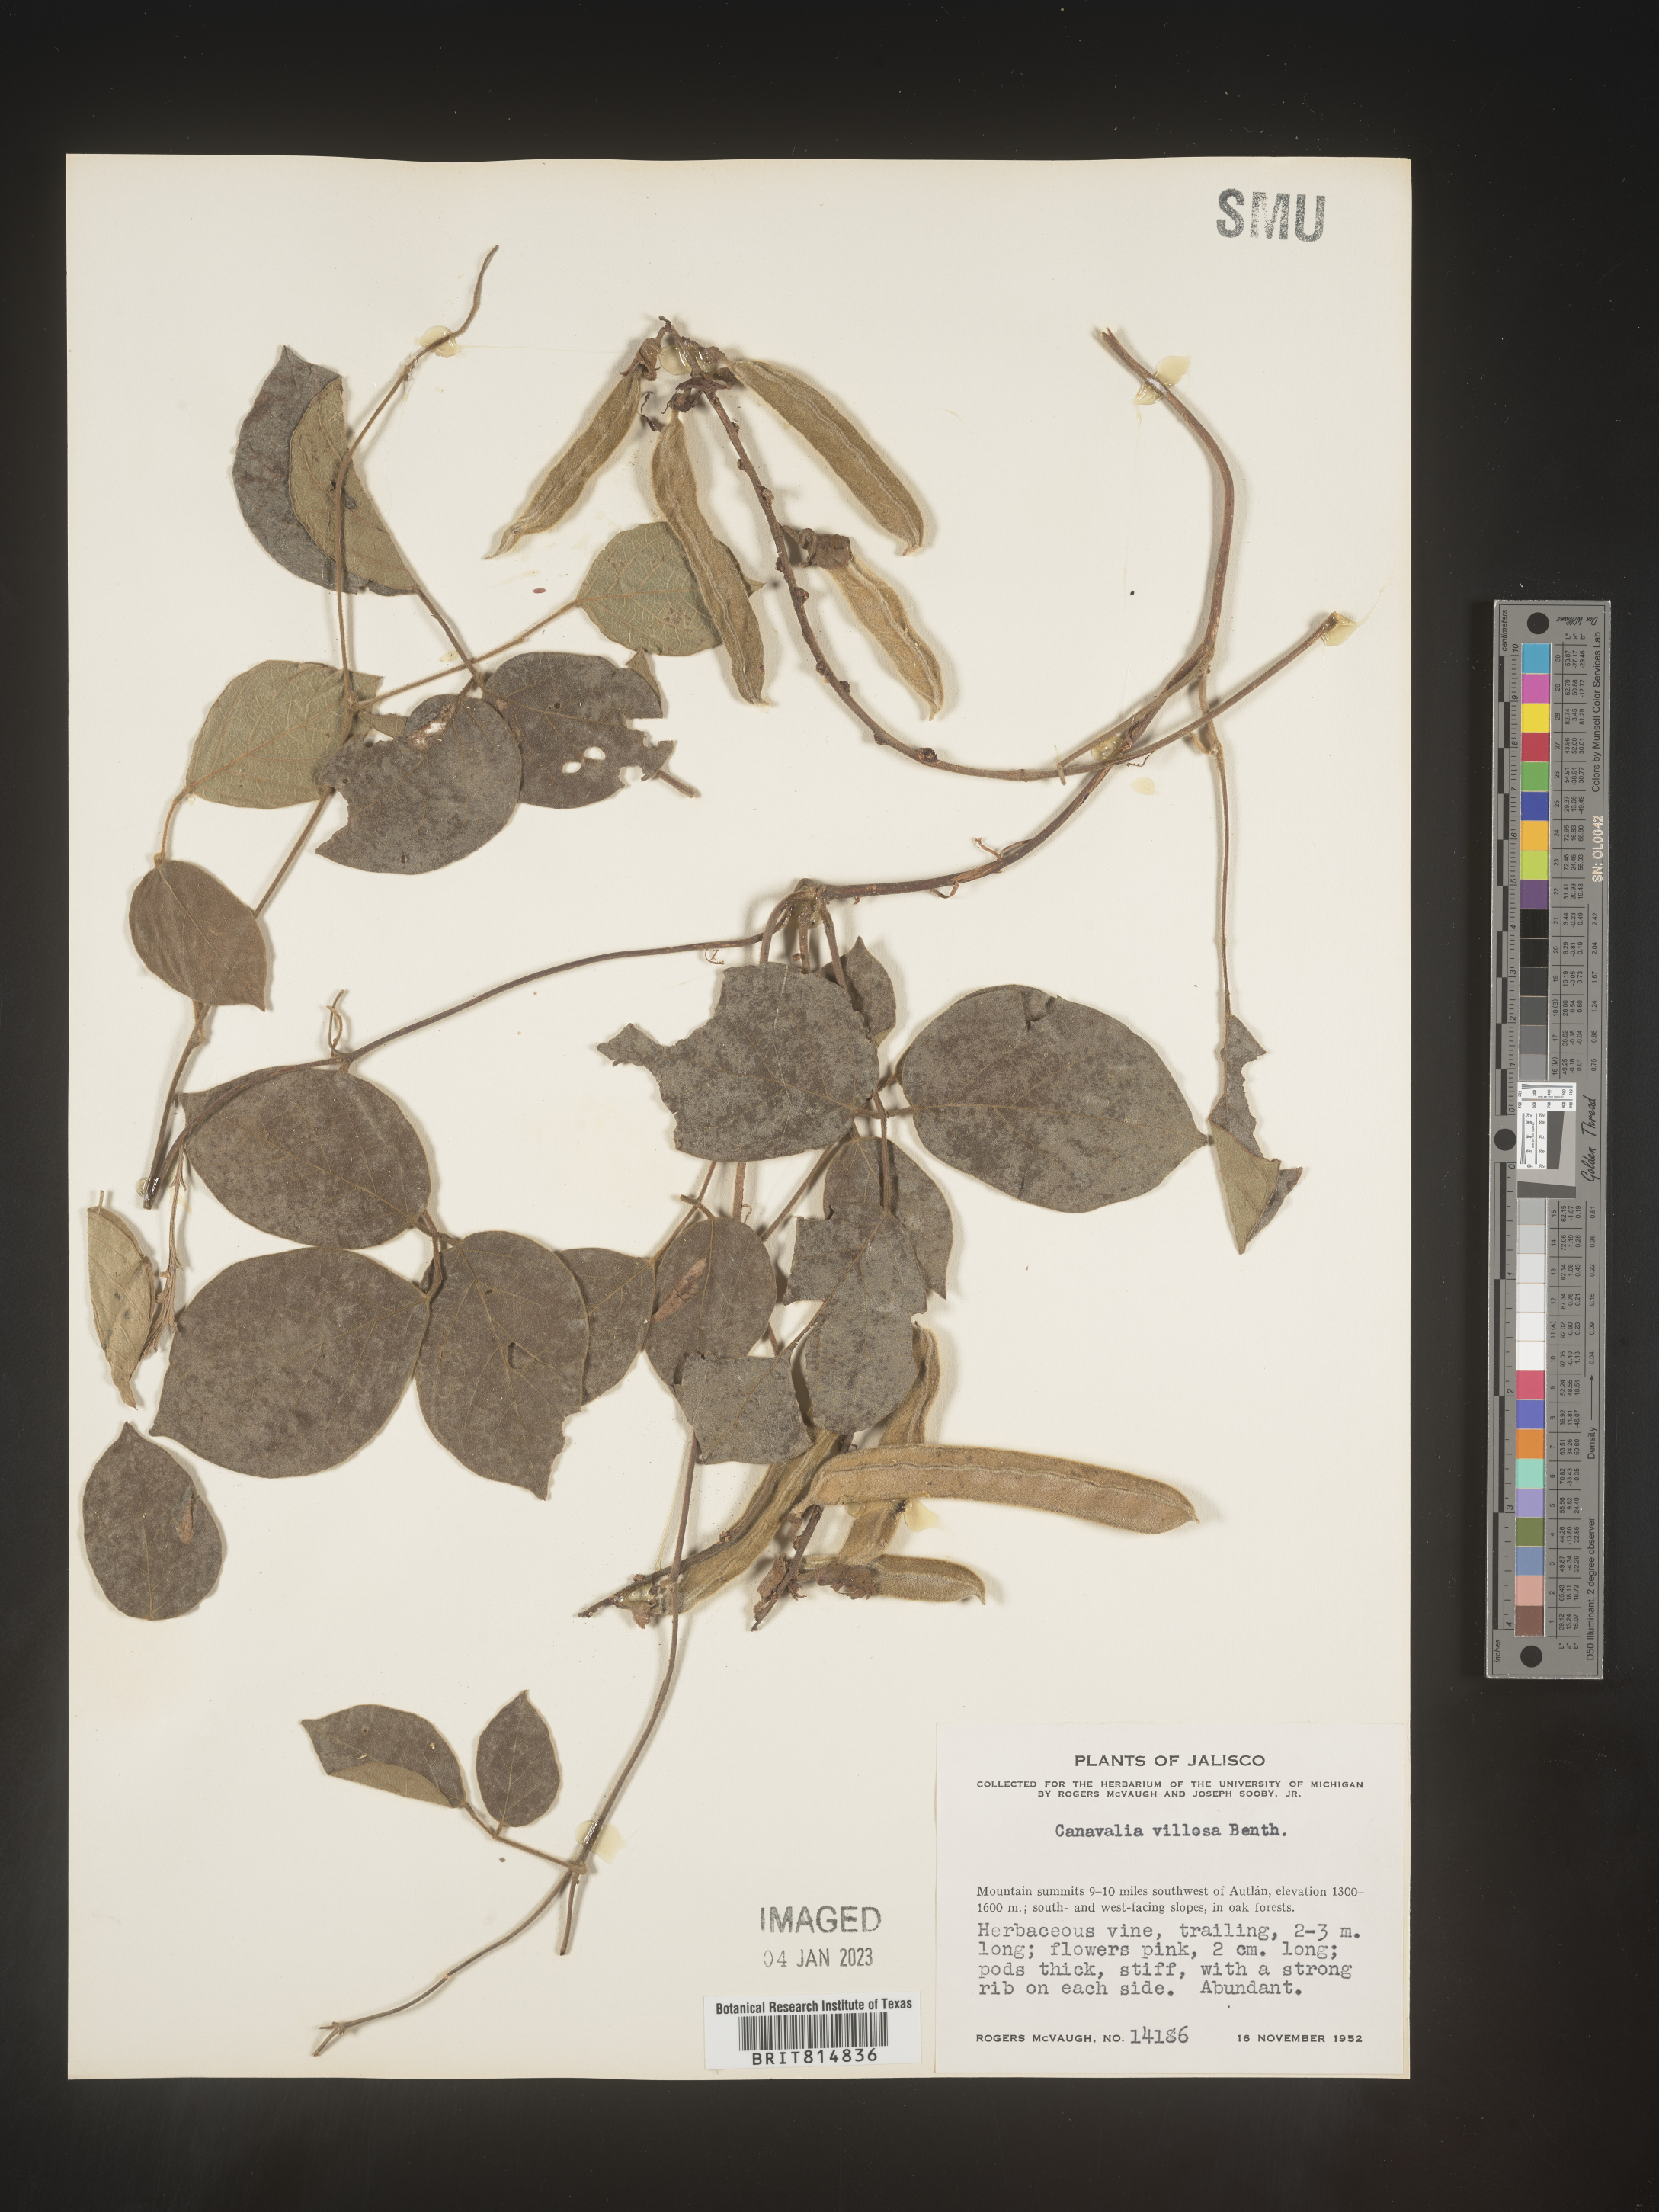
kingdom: Plantae
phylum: Tracheophyta
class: Magnoliopsida
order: Fabales
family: Fabaceae
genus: Canavalia
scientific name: Canavalia
